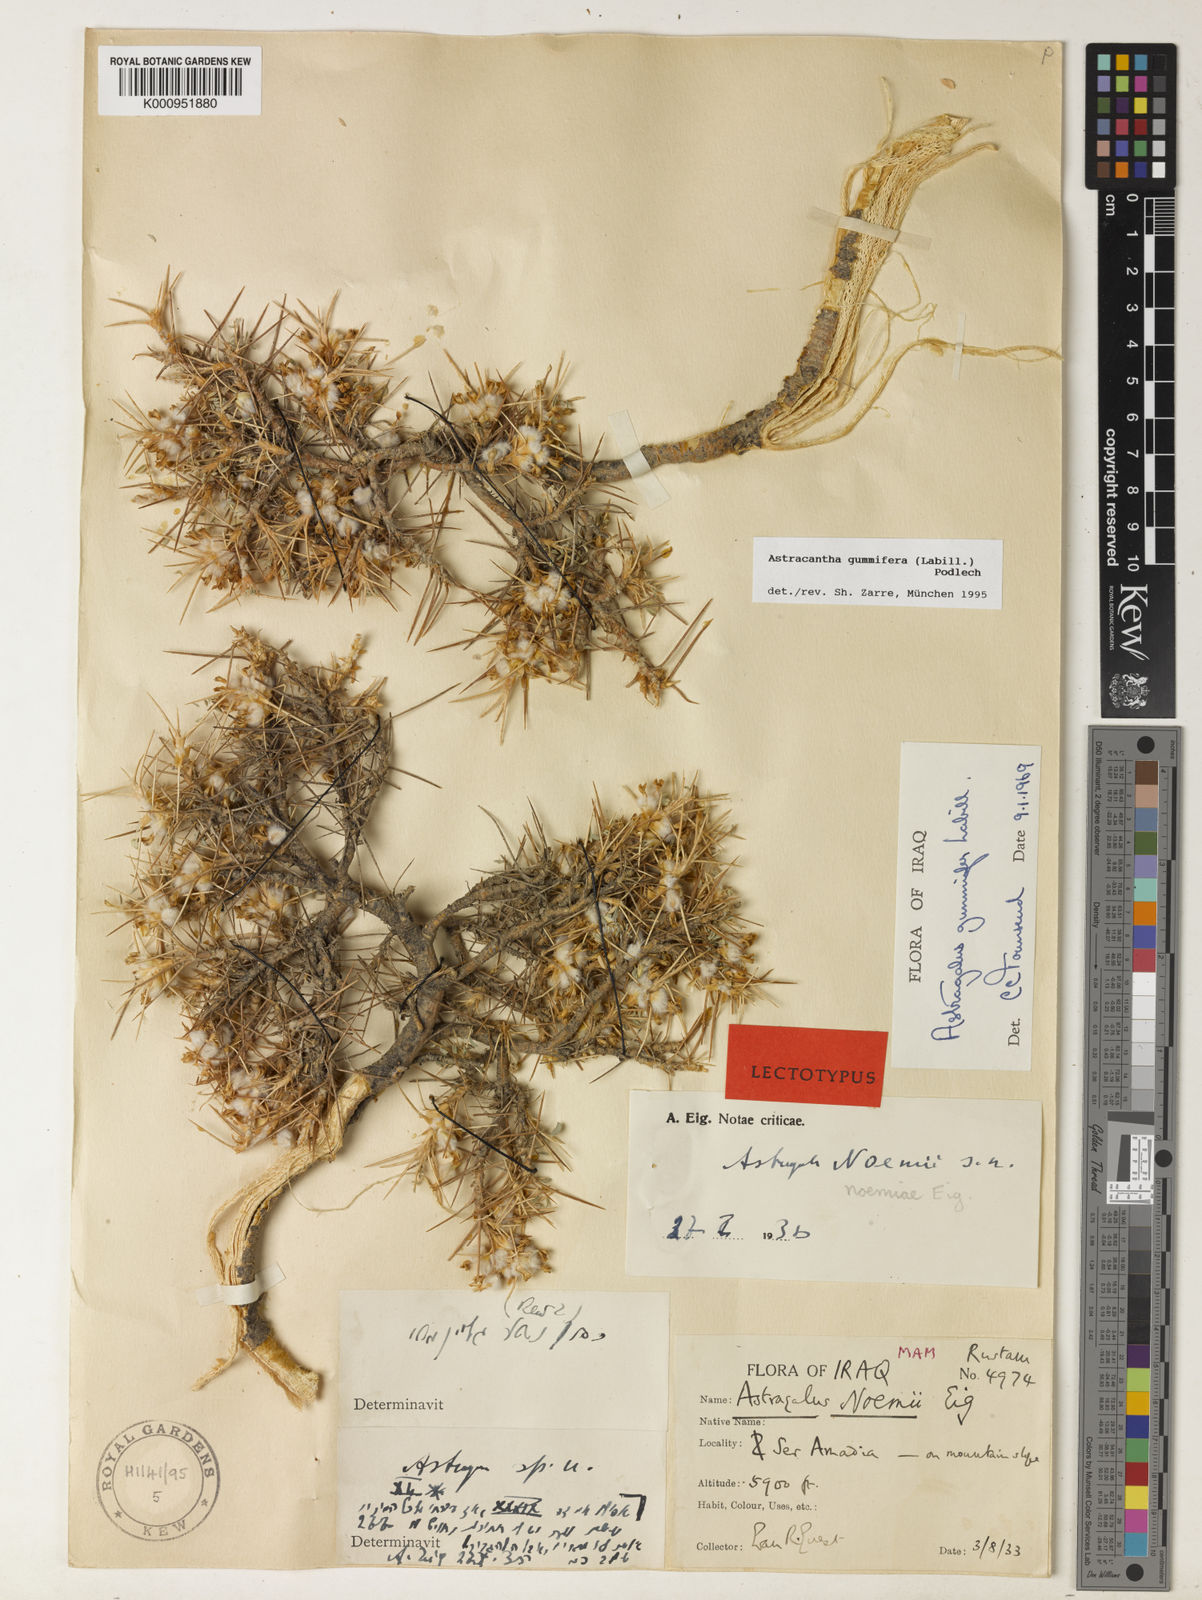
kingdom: Plantae
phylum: Tracheophyta
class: Magnoliopsida
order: Fabales
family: Fabaceae
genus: Astragalus
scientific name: Astragalus gummifer
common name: Tragacanth
